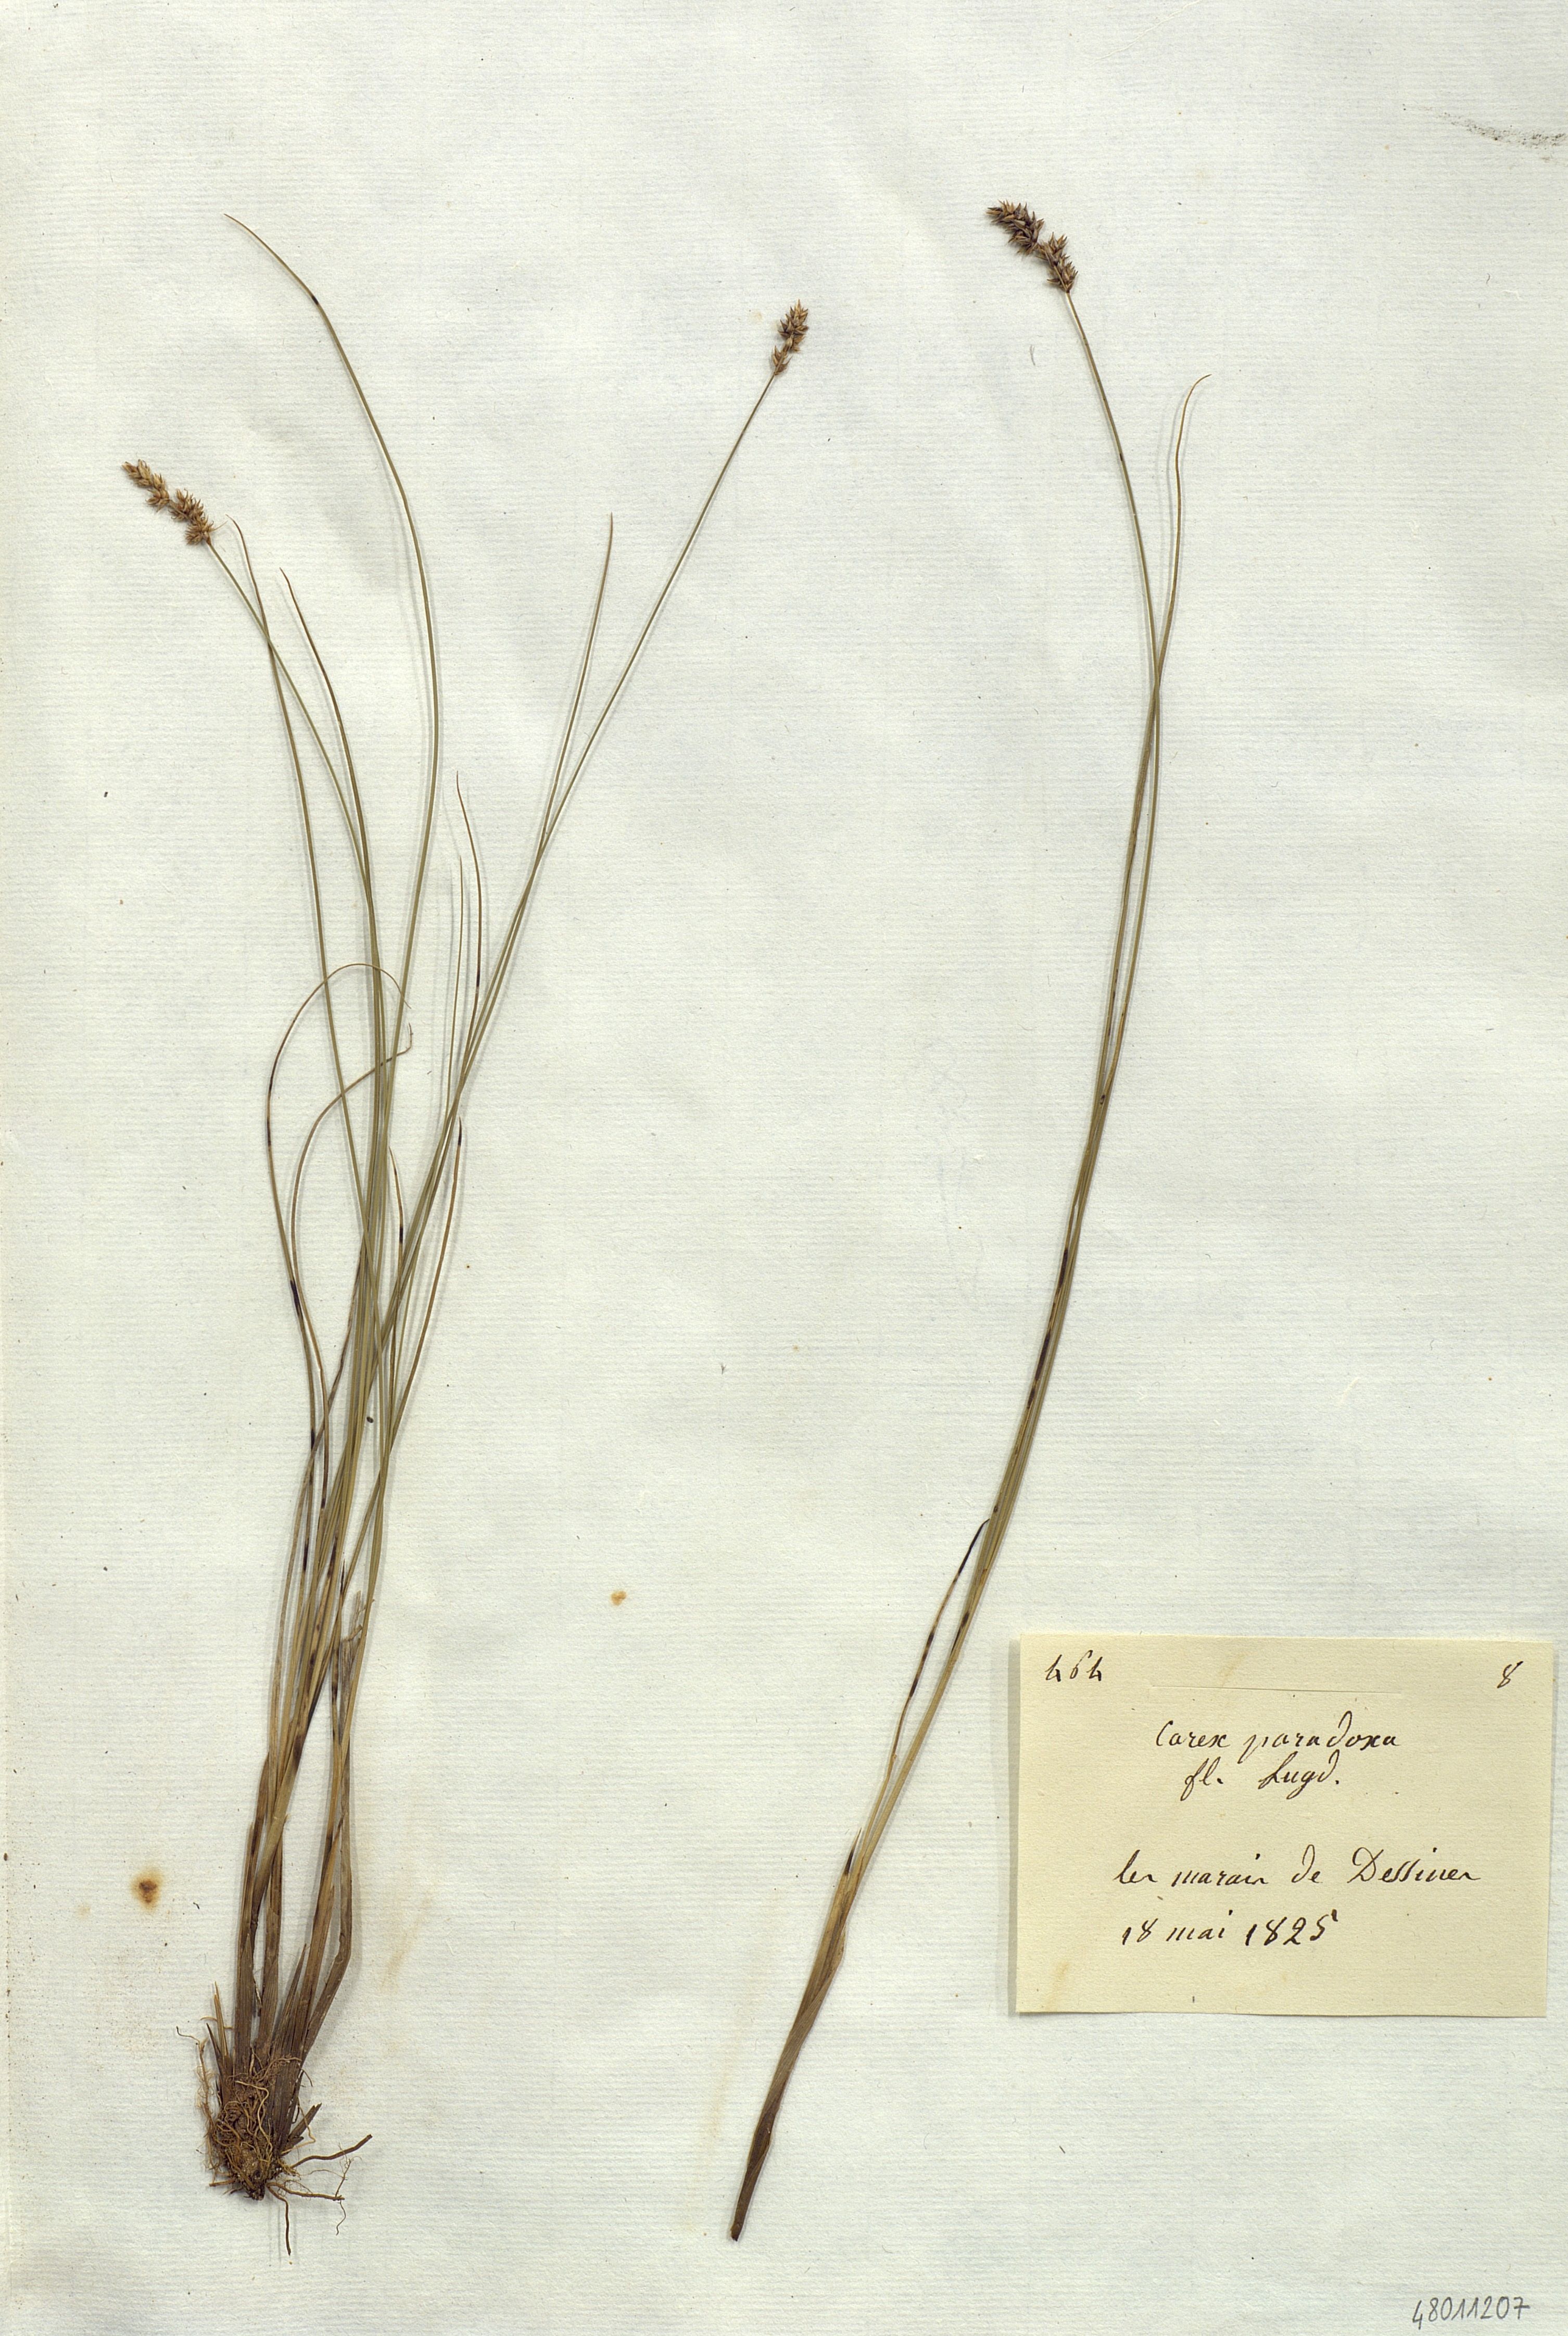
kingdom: Plantae
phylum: Tracheophyta
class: Liliopsida
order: Poales
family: Cyperaceae
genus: Carex
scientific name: Carex
